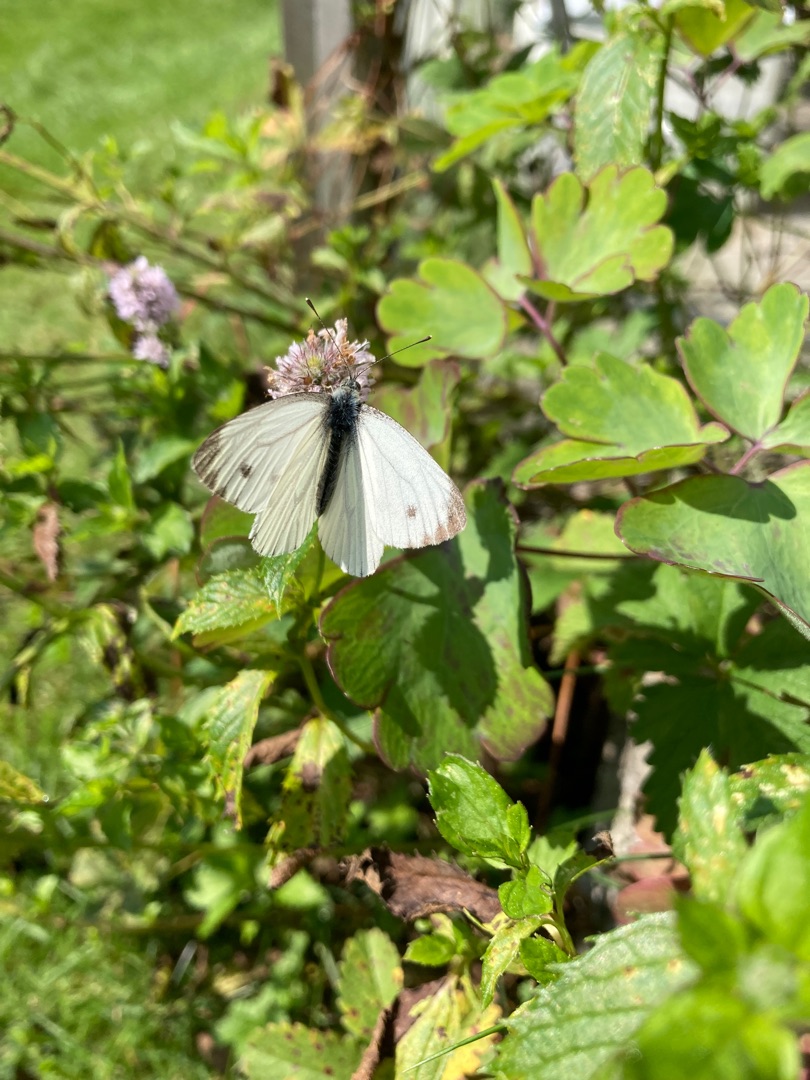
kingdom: Animalia
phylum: Arthropoda
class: Insecta
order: Lepidoptera
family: Pieridae
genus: Pieris
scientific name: Pieris napi
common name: Grønåret kålsommerfugl
